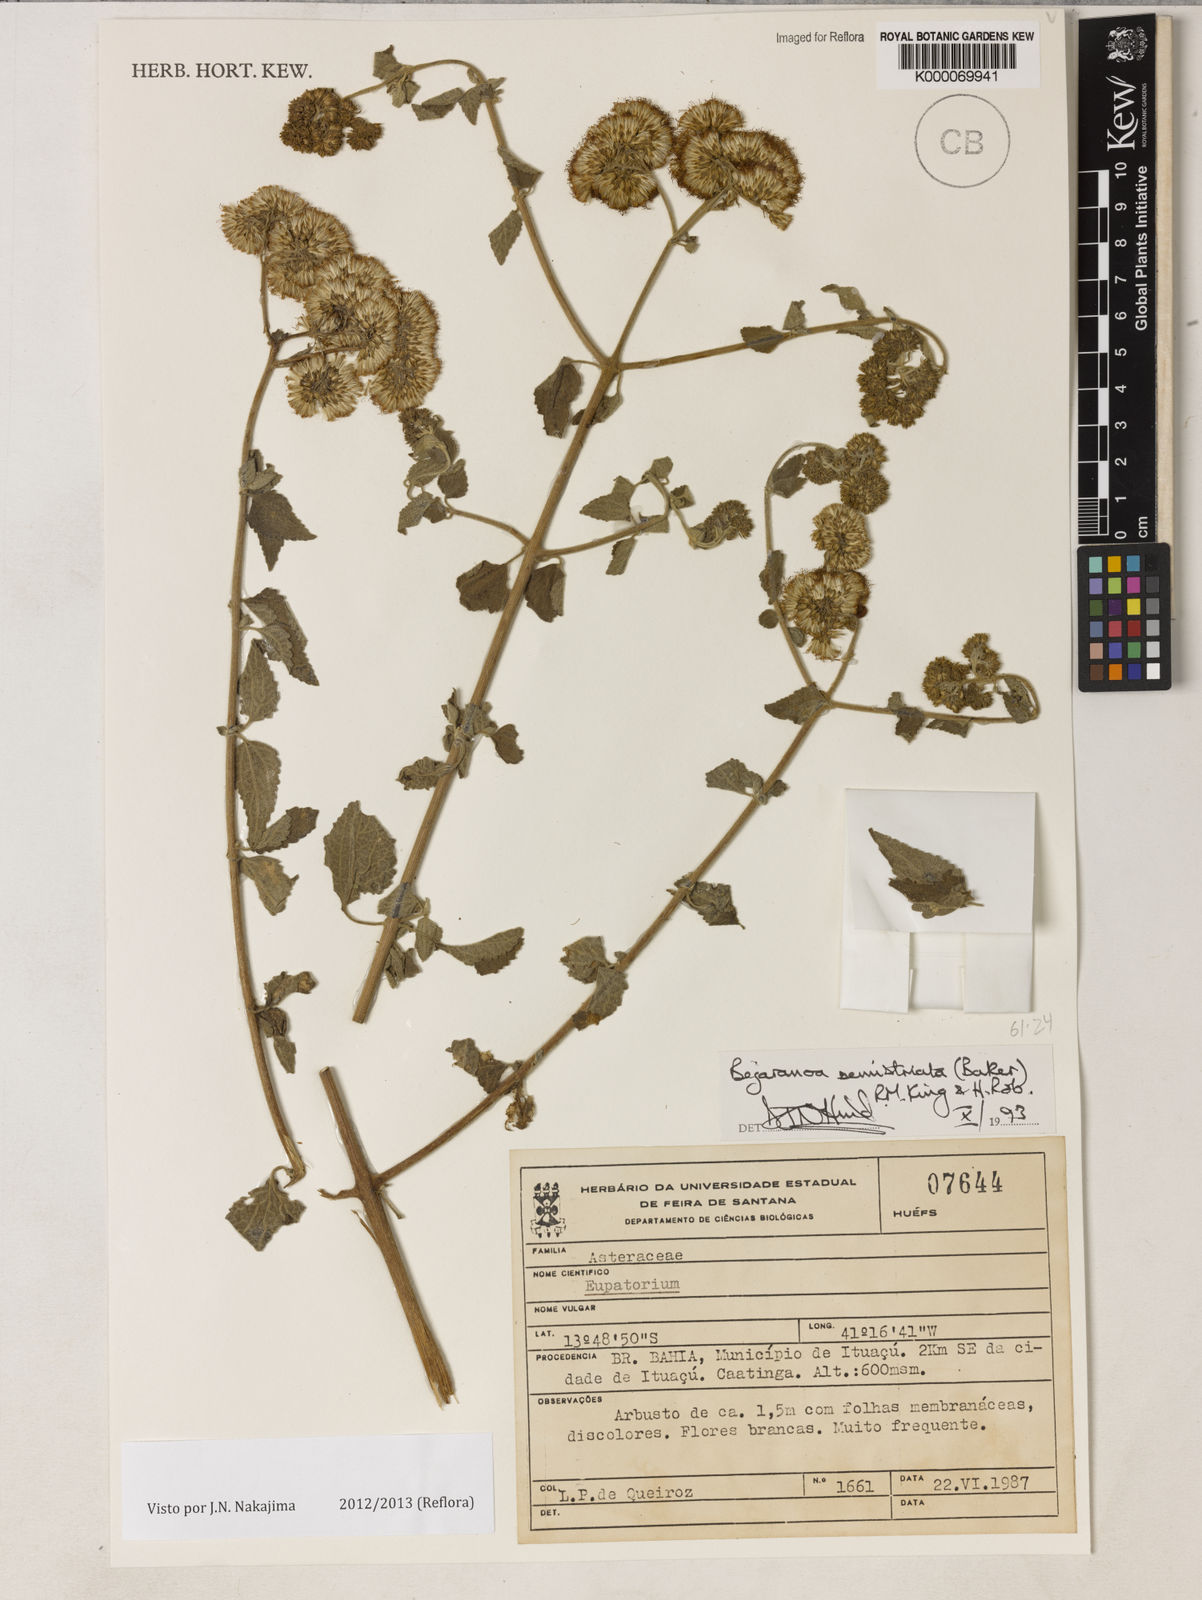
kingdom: Plantae
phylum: Tracheophyta
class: Magnoliopsida
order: Asterales
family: Asteraceae
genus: Bejaranoa
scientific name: Bejaranoa semistriata
